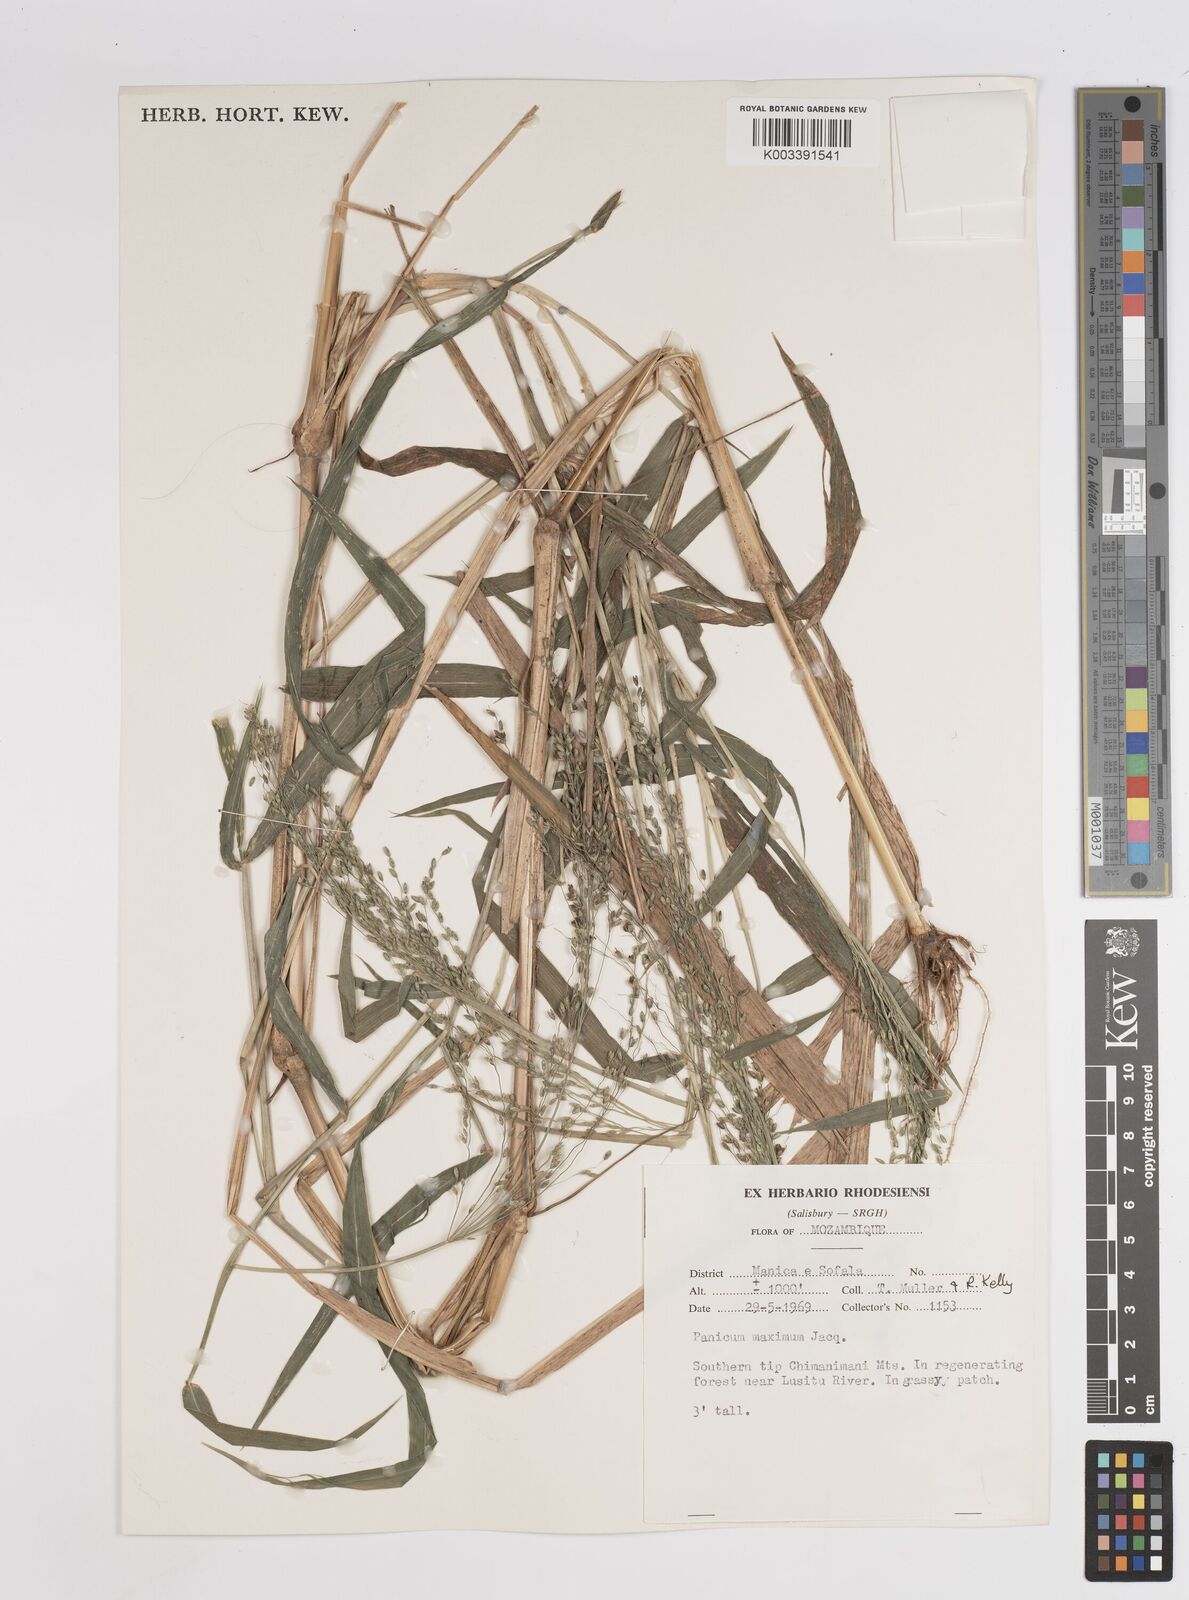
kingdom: Plantae
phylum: Tracheophyta
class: Liliopsida
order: Poales
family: Poaceae
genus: Megathyrsus
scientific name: Megathyrsus maximus
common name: Guineagrass
